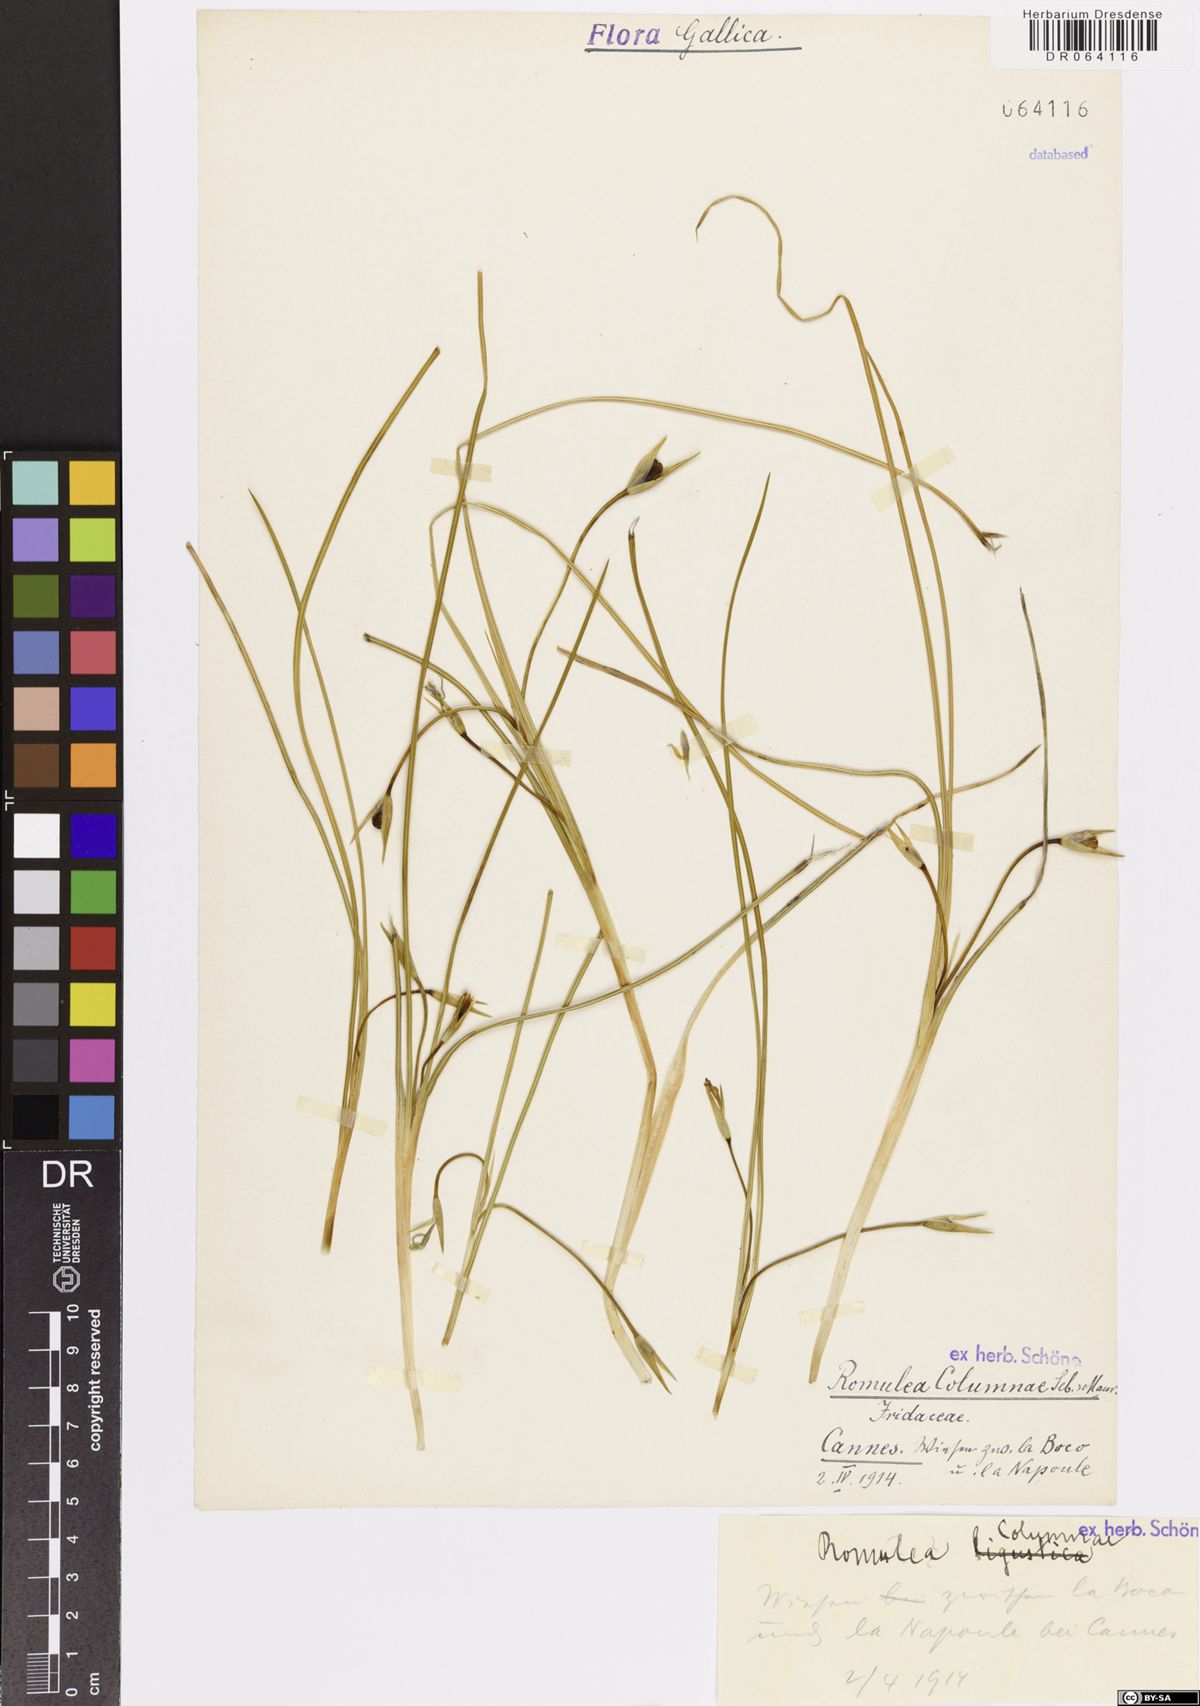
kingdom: Plantae
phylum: Tracheophyta
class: Liliopsida
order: Asparagales
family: Iridaceae
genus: Romulea
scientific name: Romulea columnae
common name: Sand-crocus
